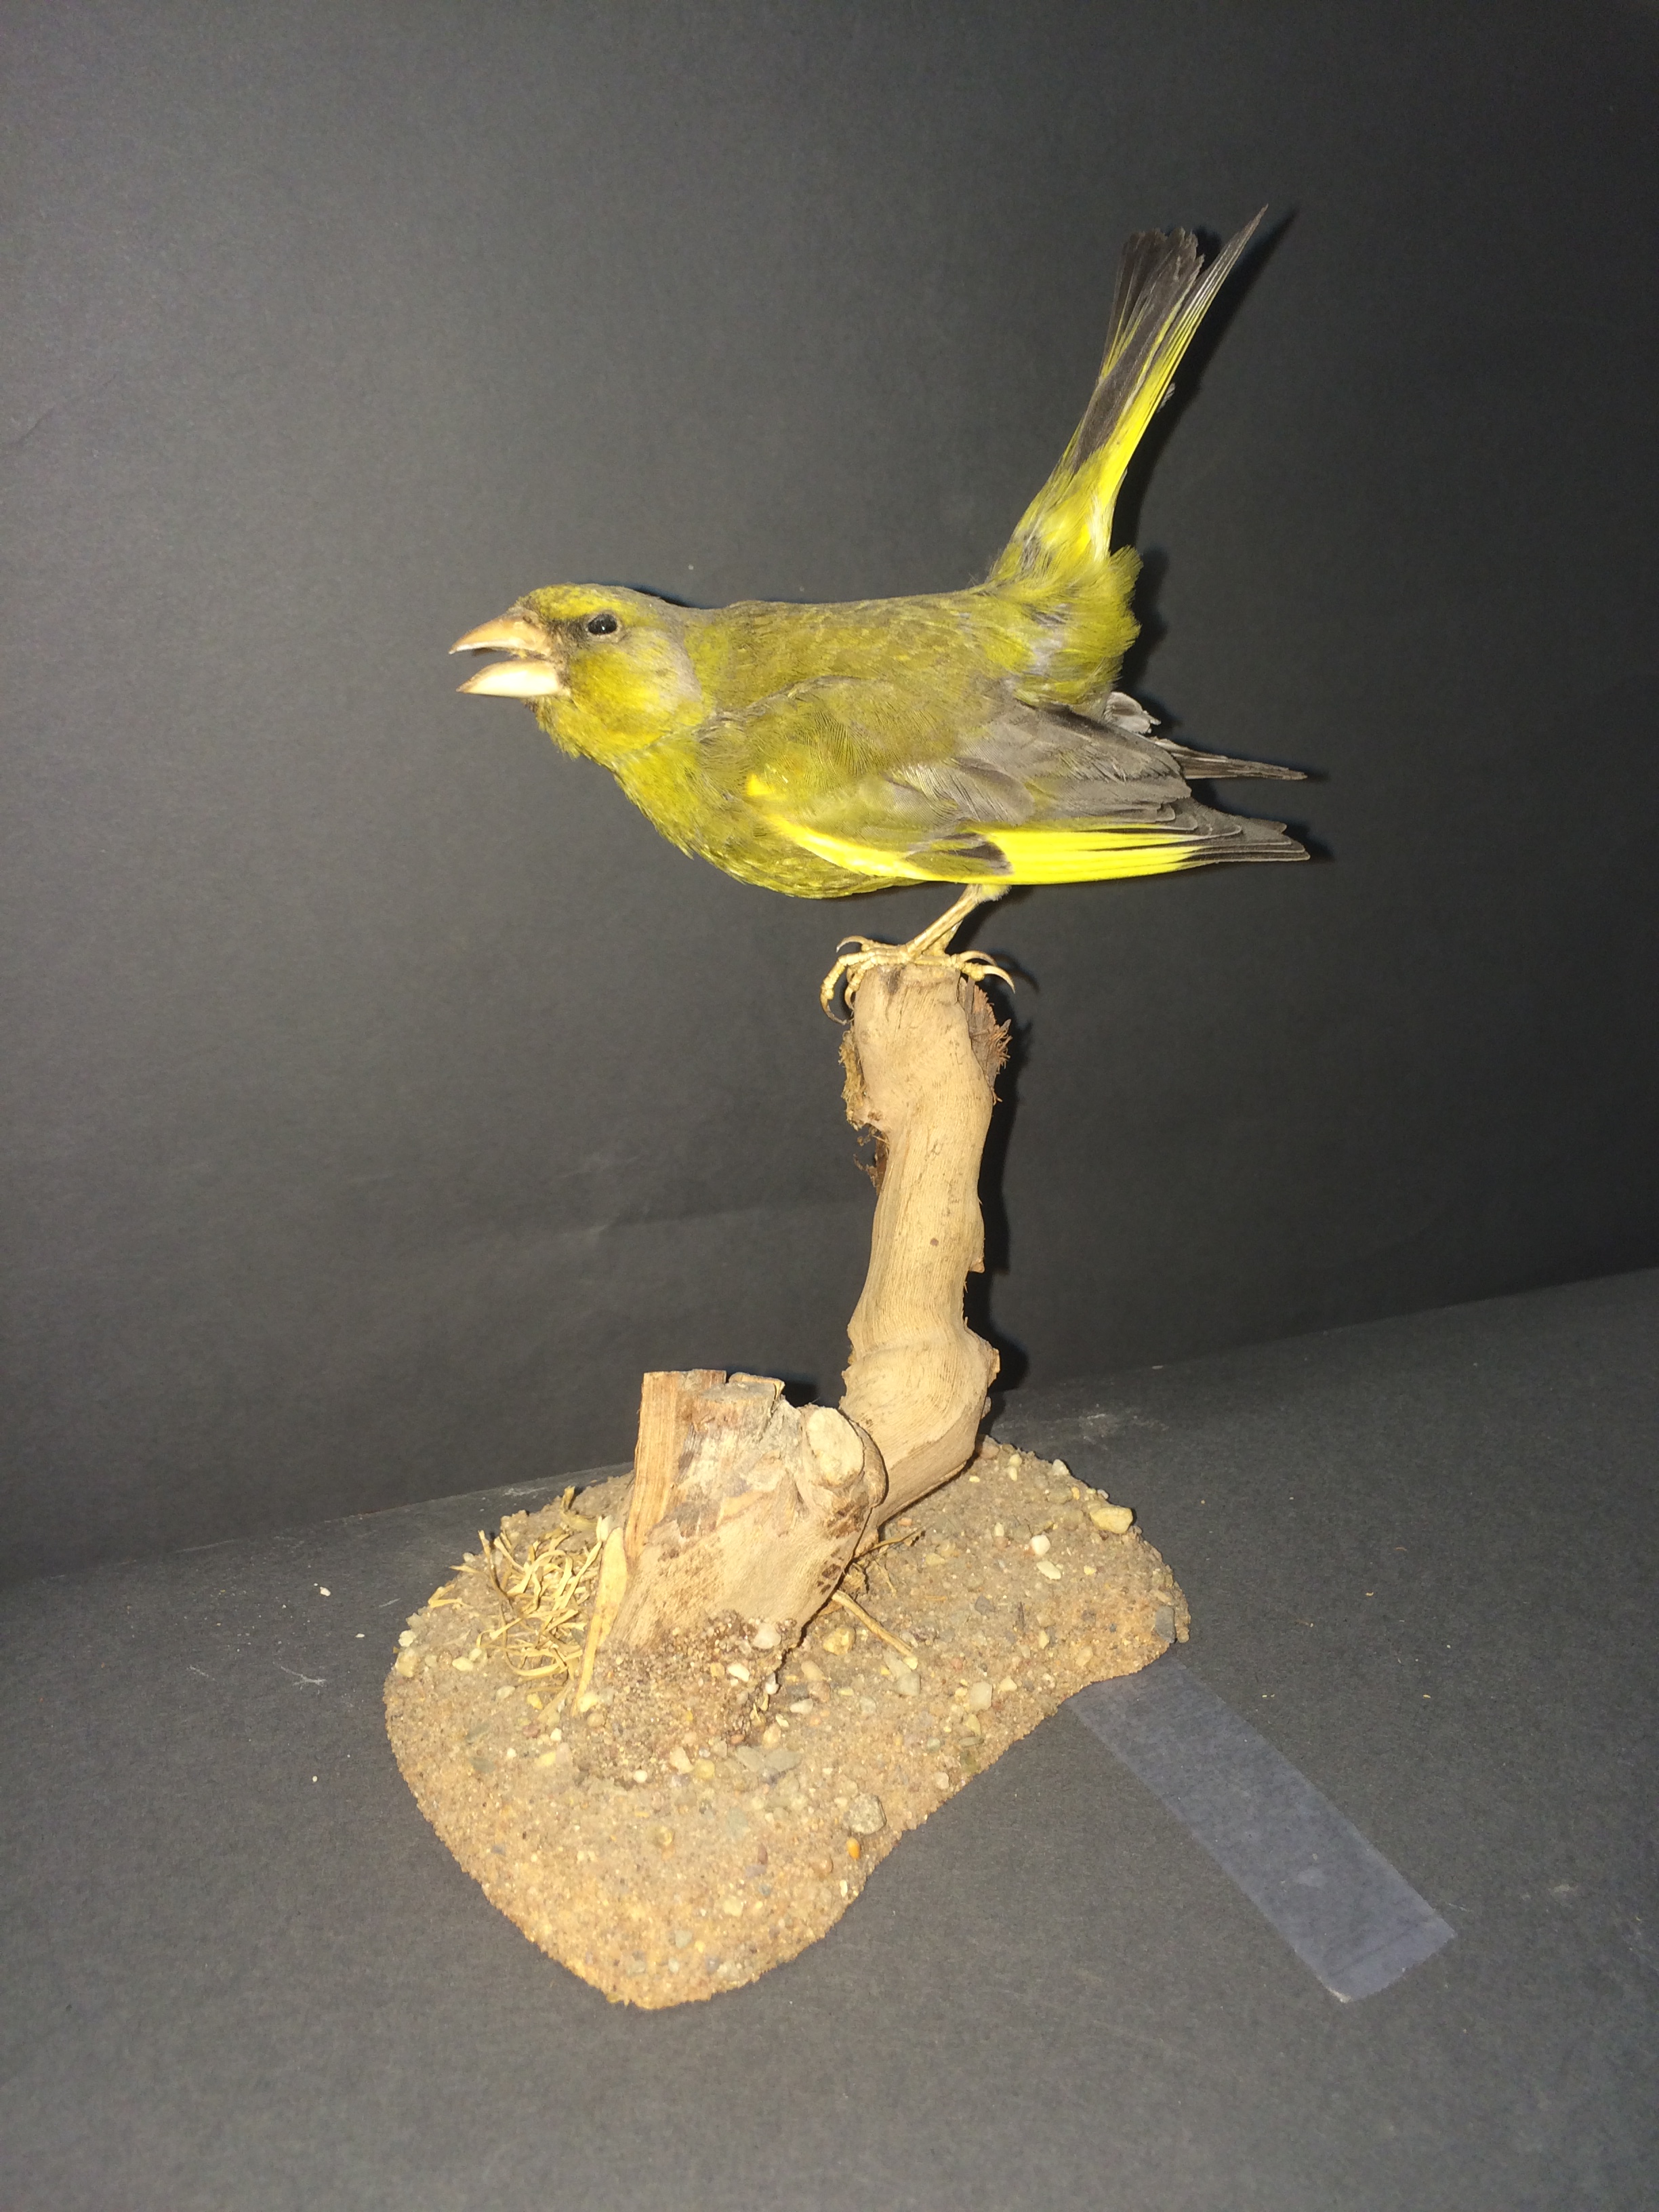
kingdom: Plantae
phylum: Tracheophyta
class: Liliopsida
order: Poales
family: Poaceae
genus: Chloris
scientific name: Chloris chloris
